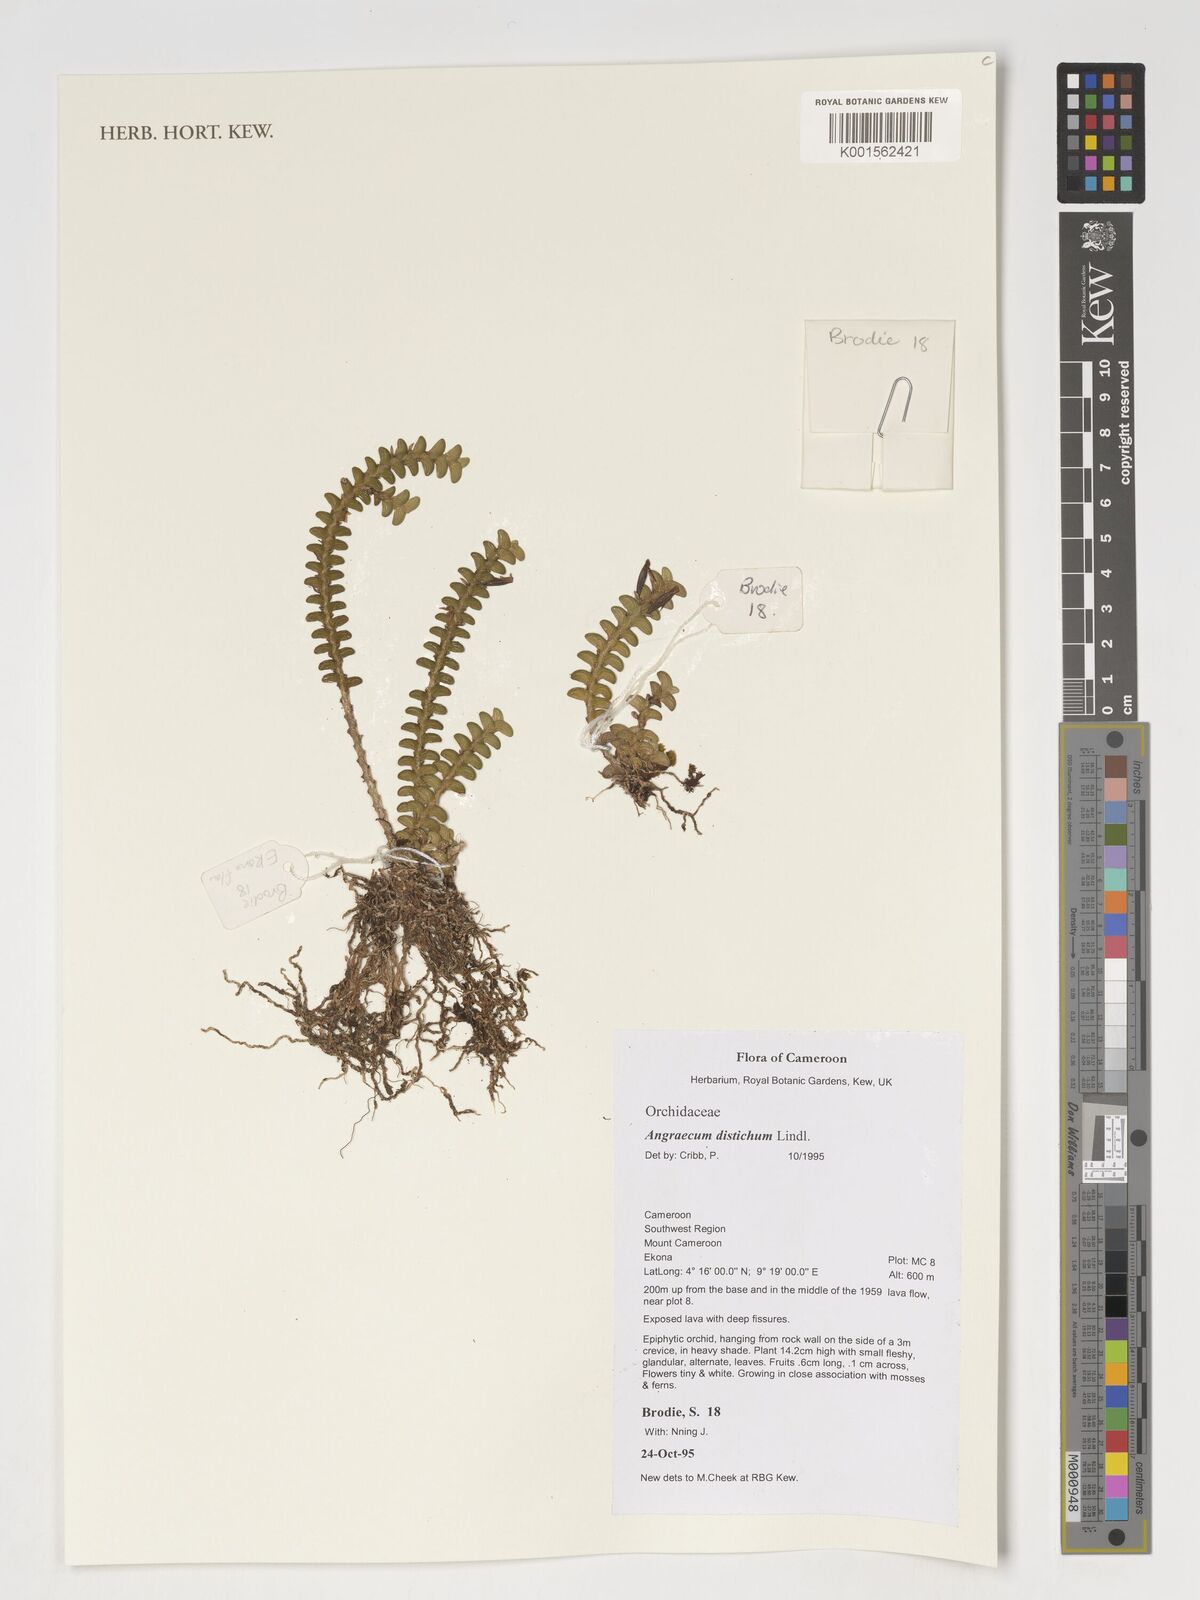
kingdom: Plantae
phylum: Tracheophyta
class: Liliopsida
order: Asparagales
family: Orchidaceae
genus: Angraecum
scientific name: Angraecum distichum
